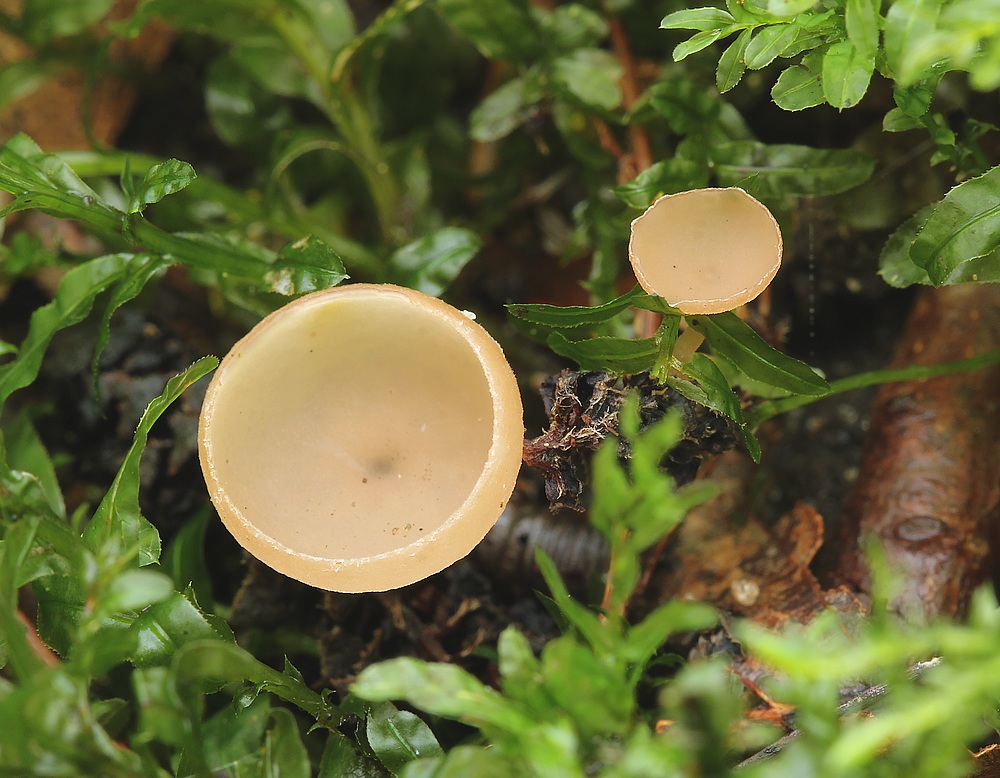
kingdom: Fungi
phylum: Ascomycota
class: Leotiomycetes
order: Helotiales
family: Sclerotiniaceae
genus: Ciboria
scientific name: Ciboria amentacea
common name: ellerakle-knoldskive
